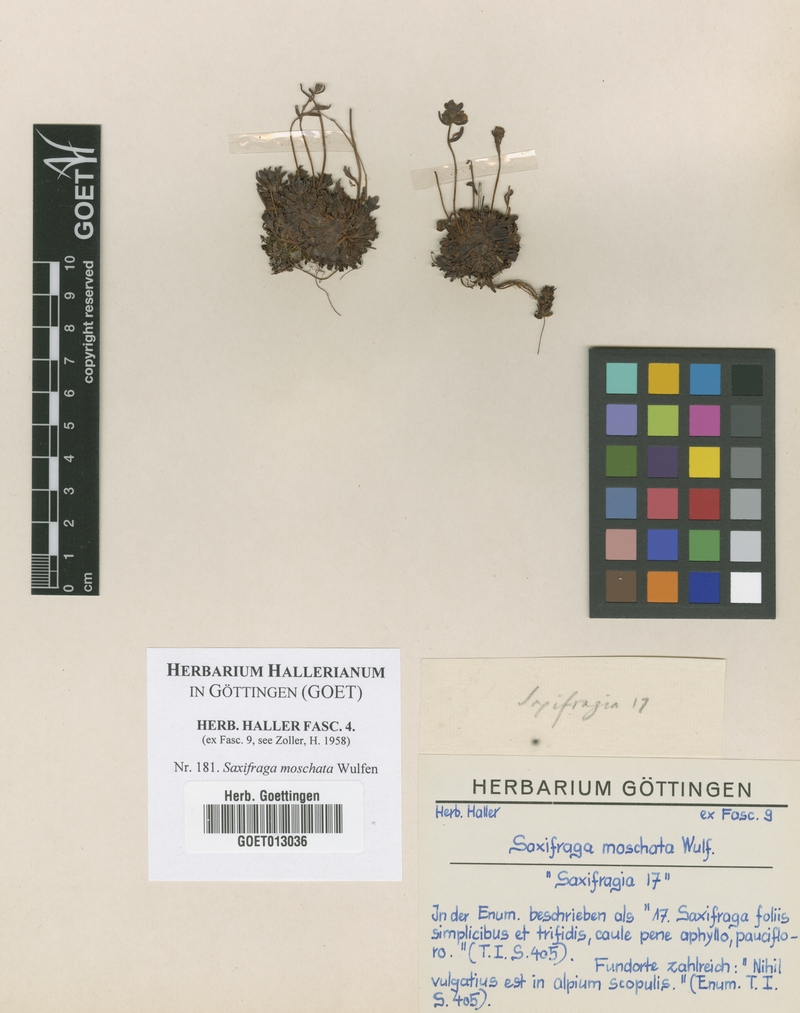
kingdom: Plantae
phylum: Tracheophyta
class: Magnoliopsida
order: Saxifragales
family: Saxifragaceae
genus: Saxifraga
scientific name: Saxifraga moschata
